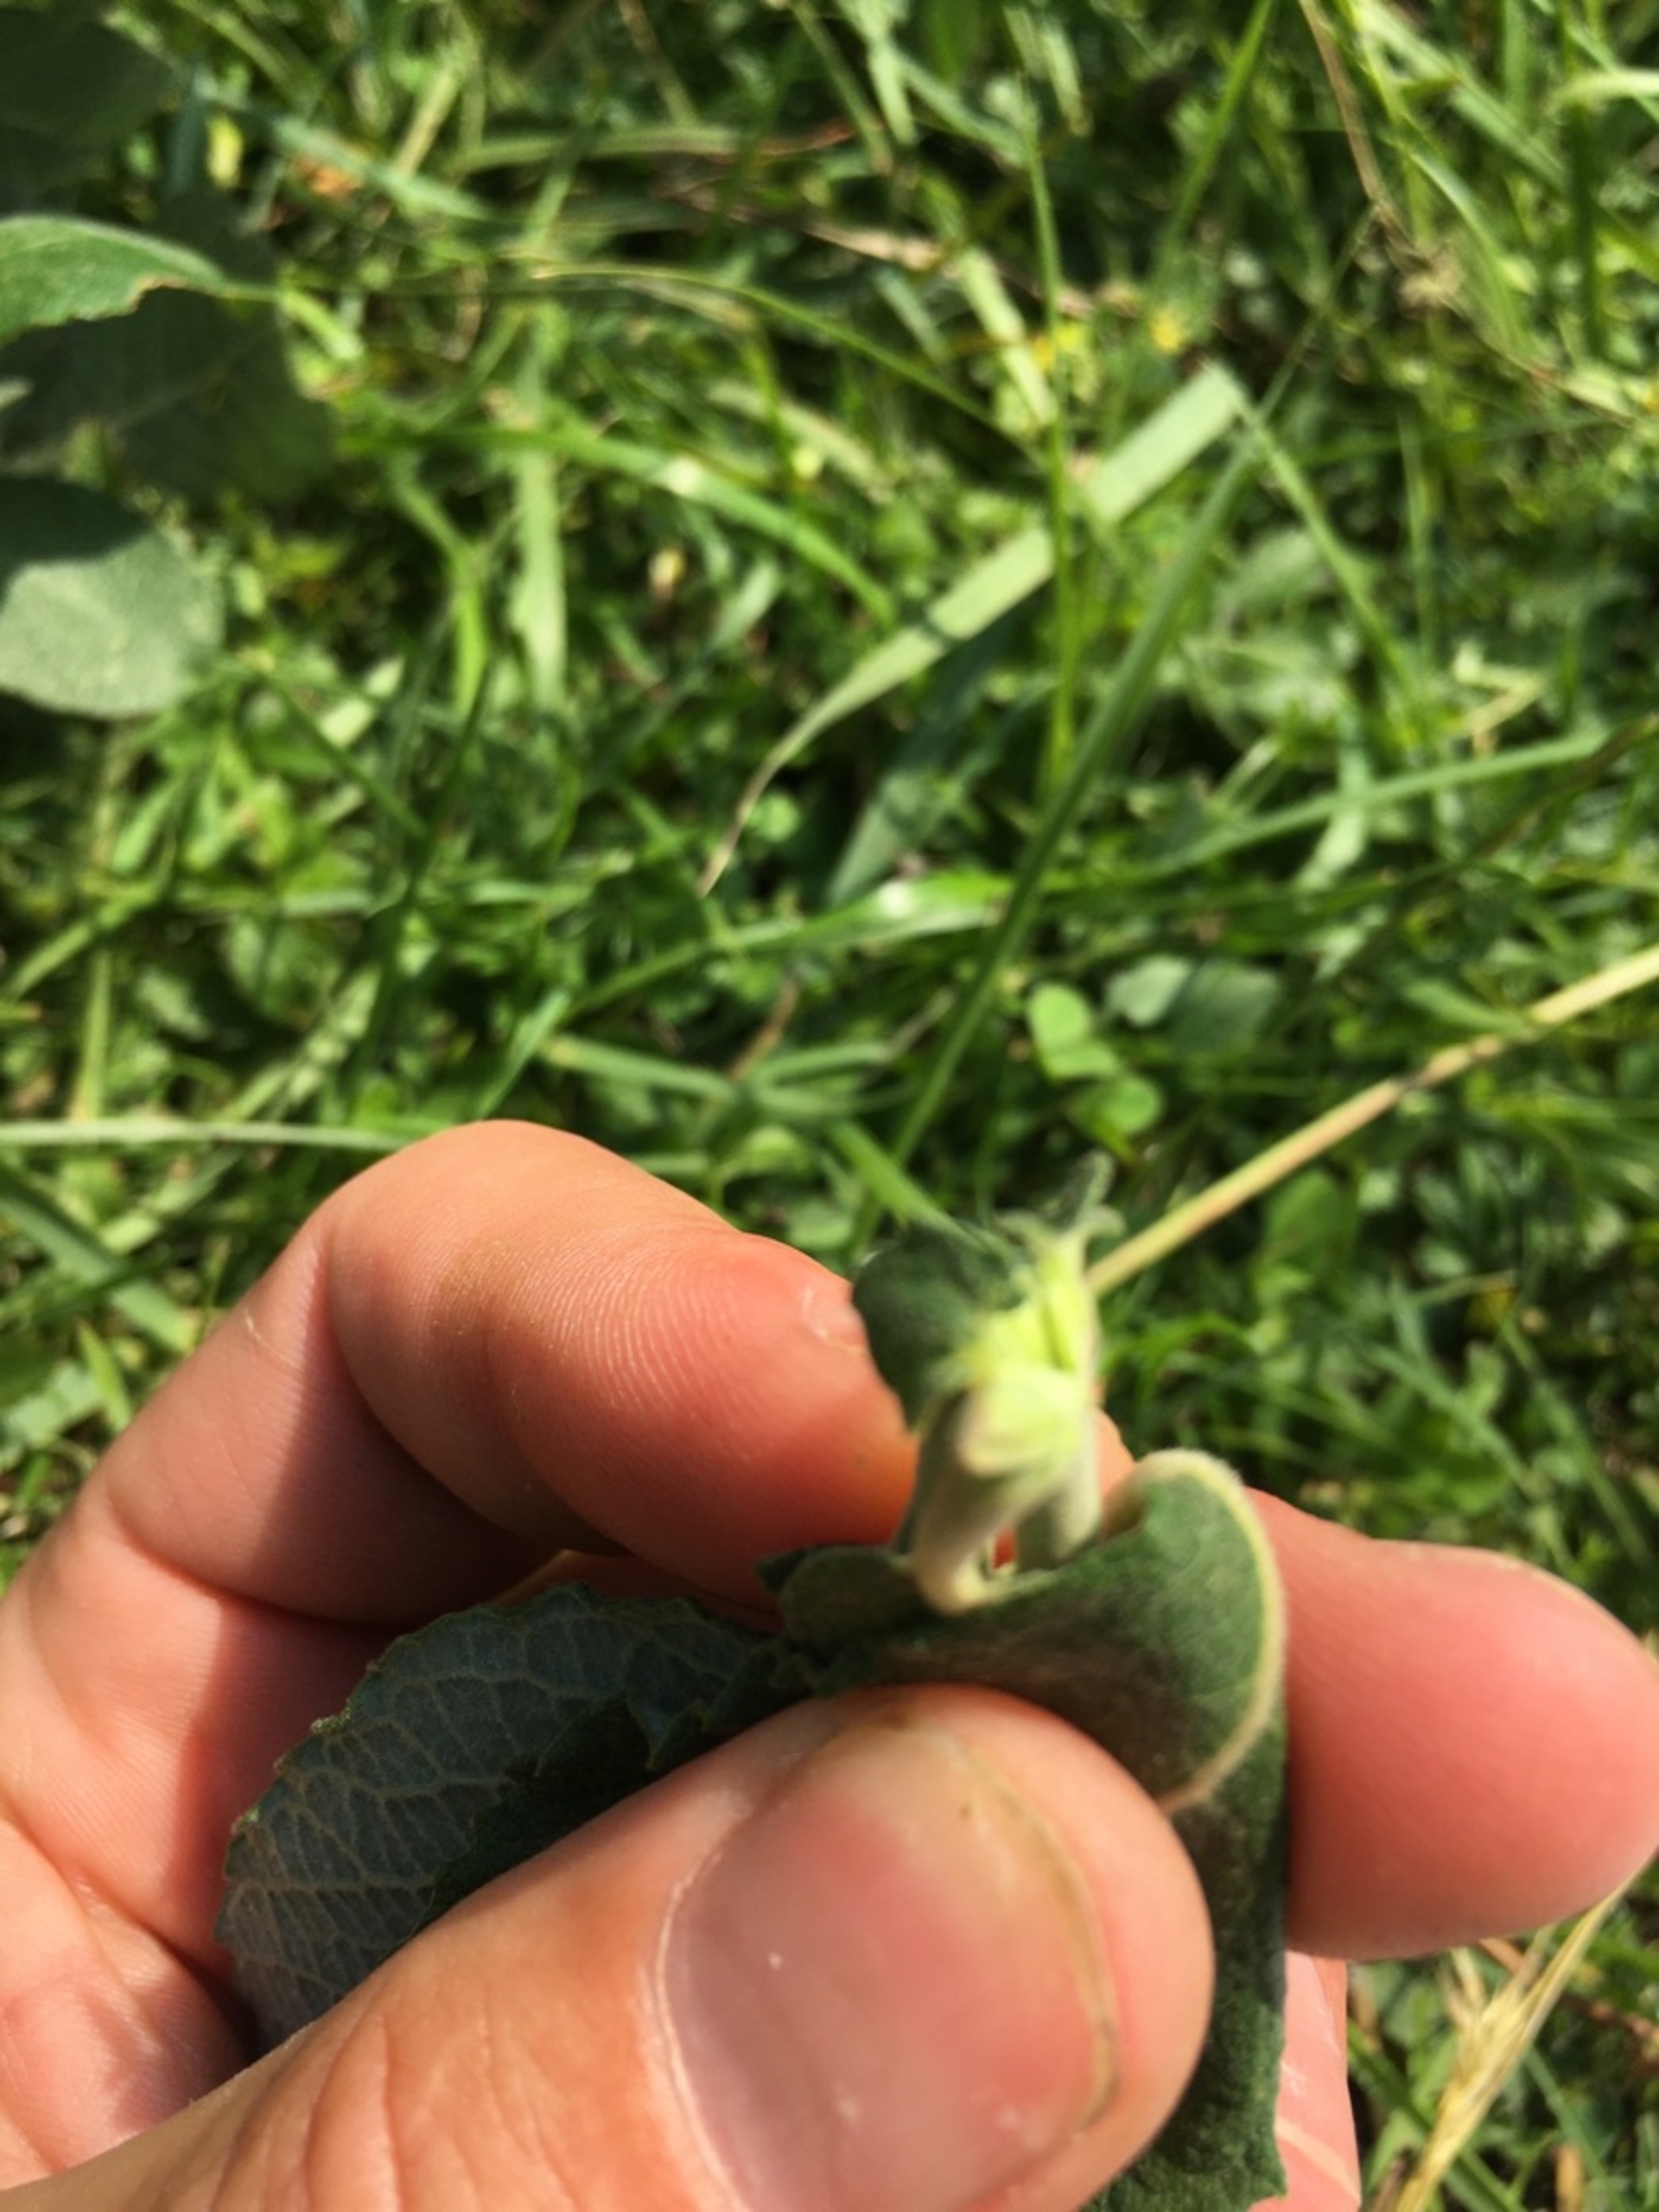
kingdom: Plantae
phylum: Tracheophyta
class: Magnoliopsida
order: Malpighiales
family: Salicaceae
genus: Salix
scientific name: Salix cinerea
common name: Grå-pil
